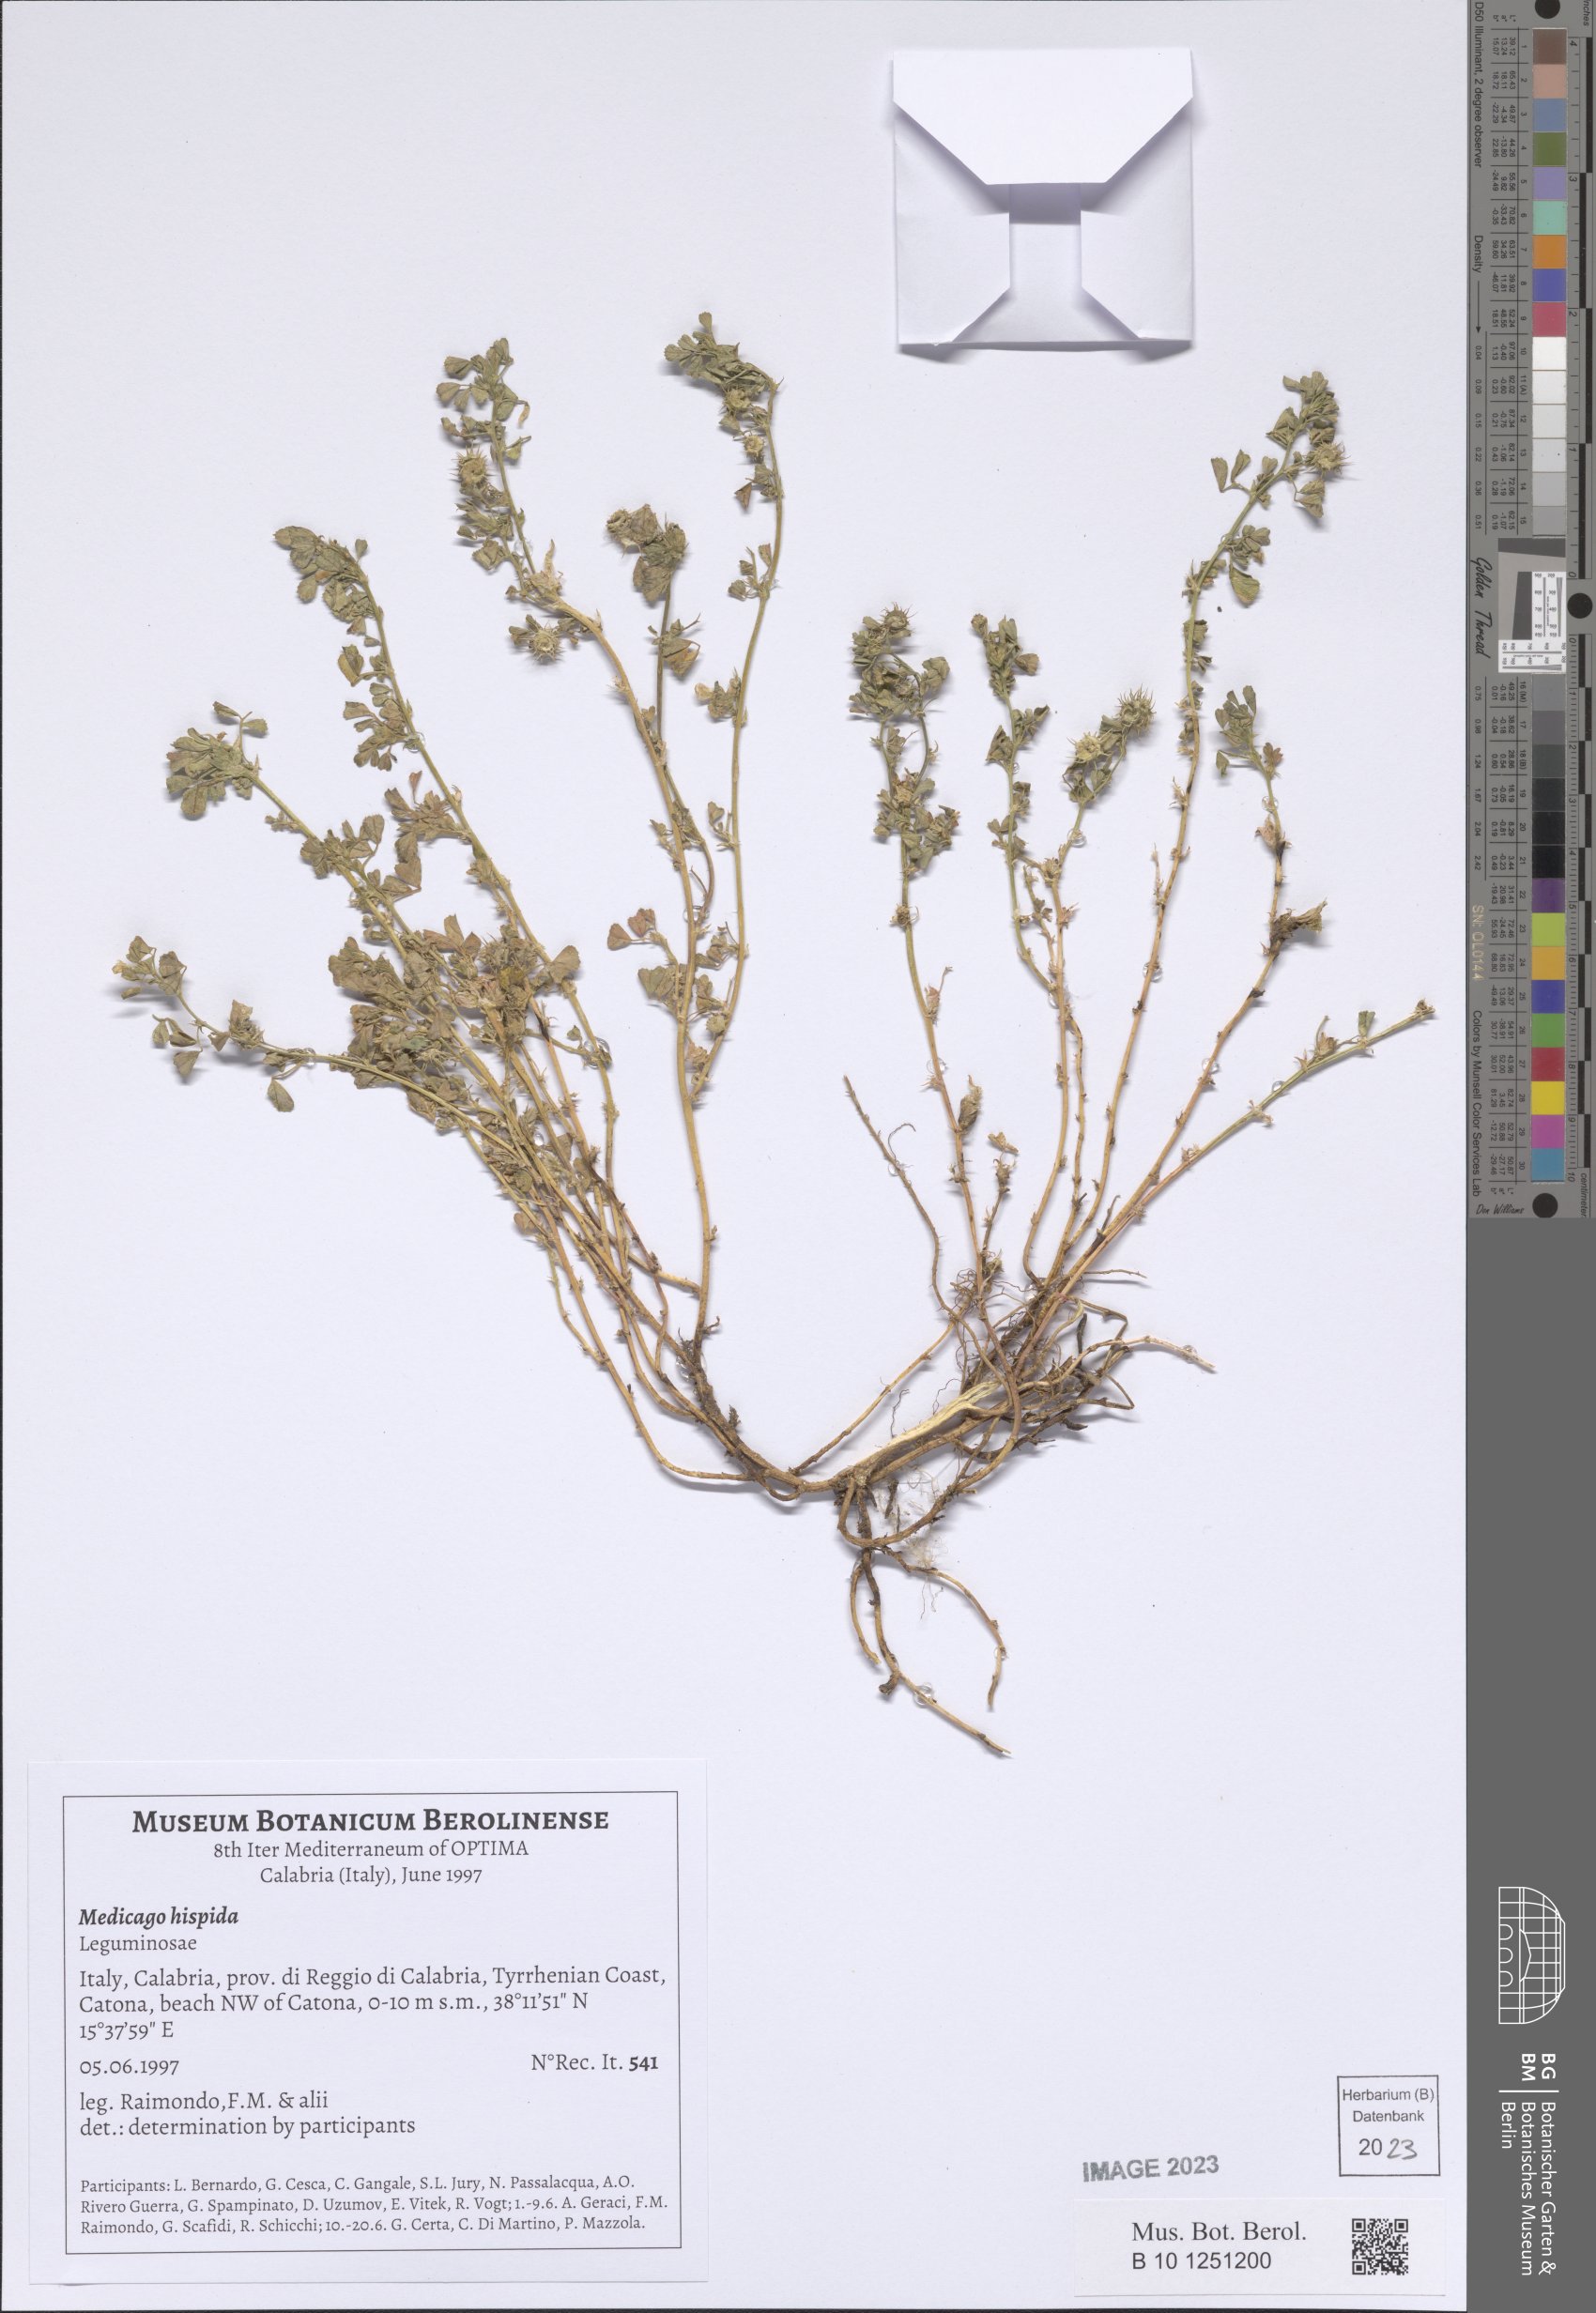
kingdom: Plantae
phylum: Tracheophyta
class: Magnoliopsida
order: Fabales
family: Fabaceae
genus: Medicago
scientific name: Medicago polymorpha
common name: Burclover
